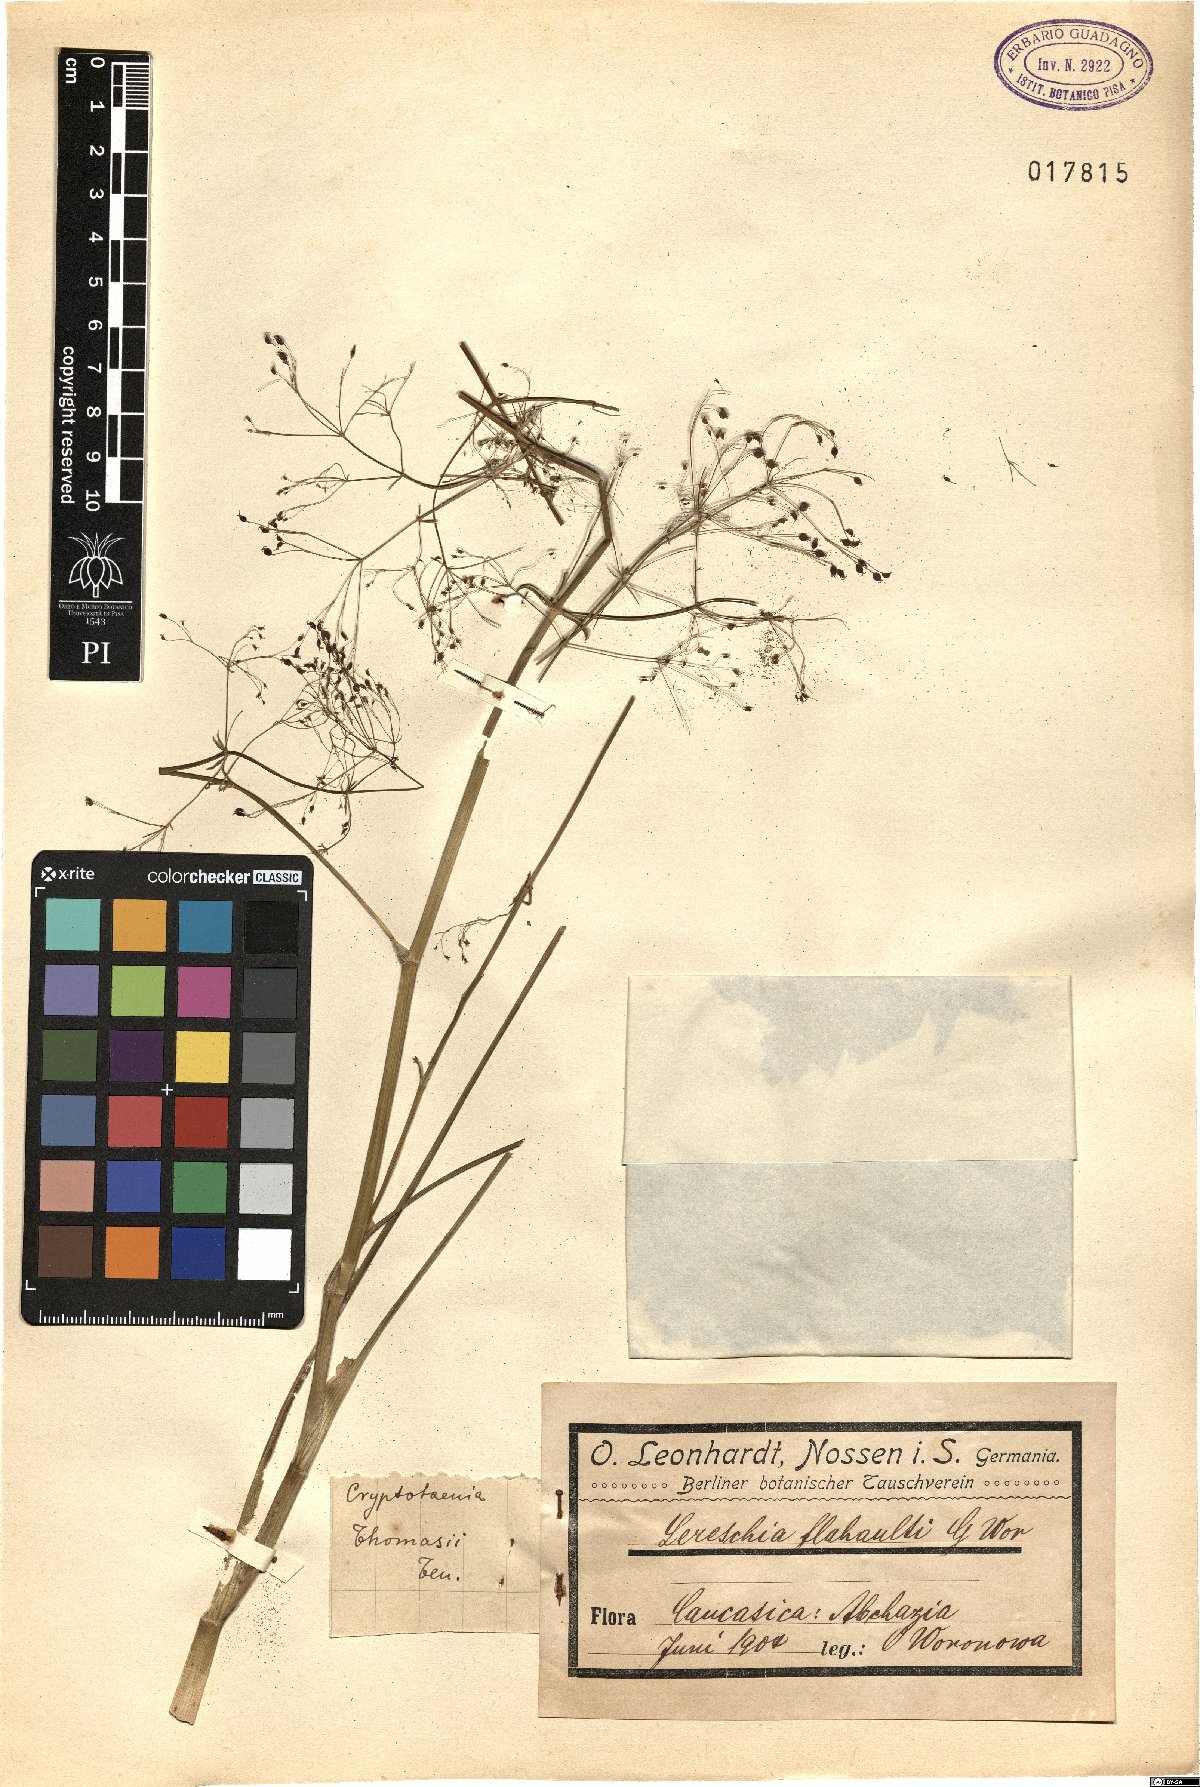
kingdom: Plantae
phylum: Tracheophyta
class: Magnoliopsida
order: Apiales
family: Apiaceae
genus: Cryptotaenia
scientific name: Cryptotaenia thomasii
